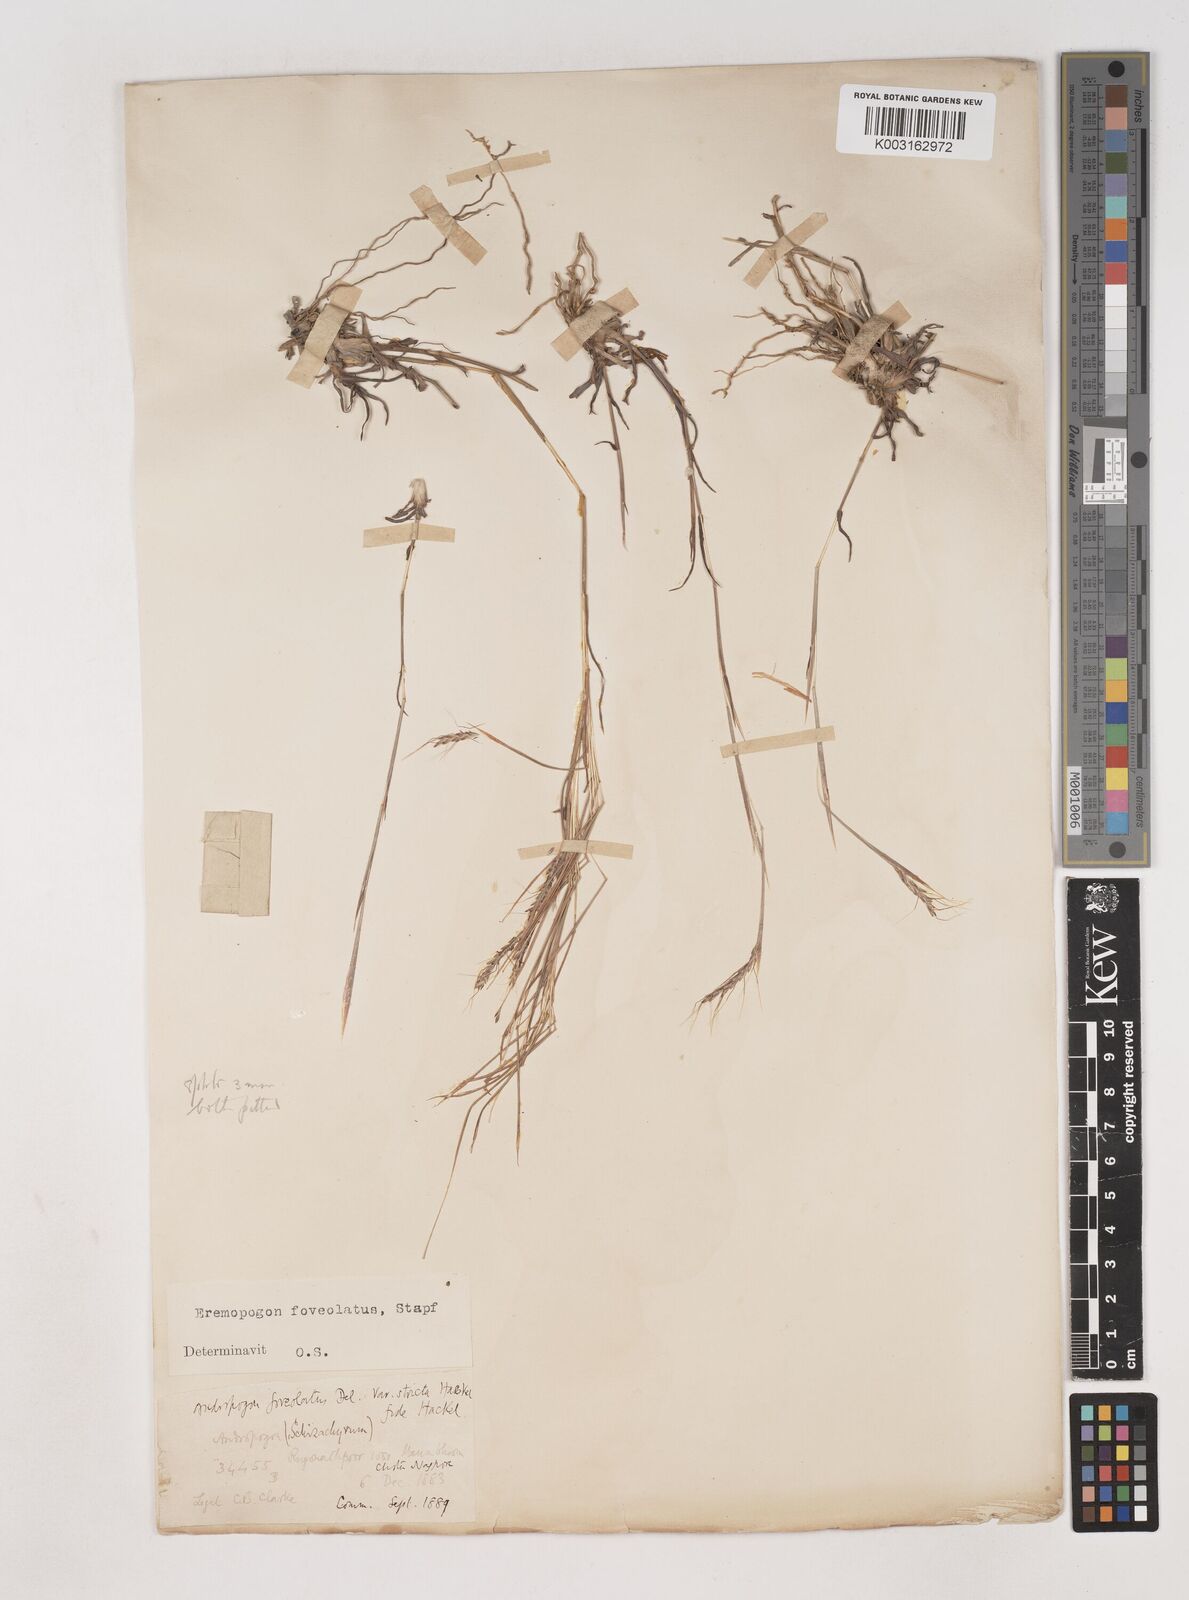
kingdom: Plantae
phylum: Tracheophyta
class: Liliopsida
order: Poales
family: Poaceae
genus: Dichanthium
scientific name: Dichanthium foveolatum
